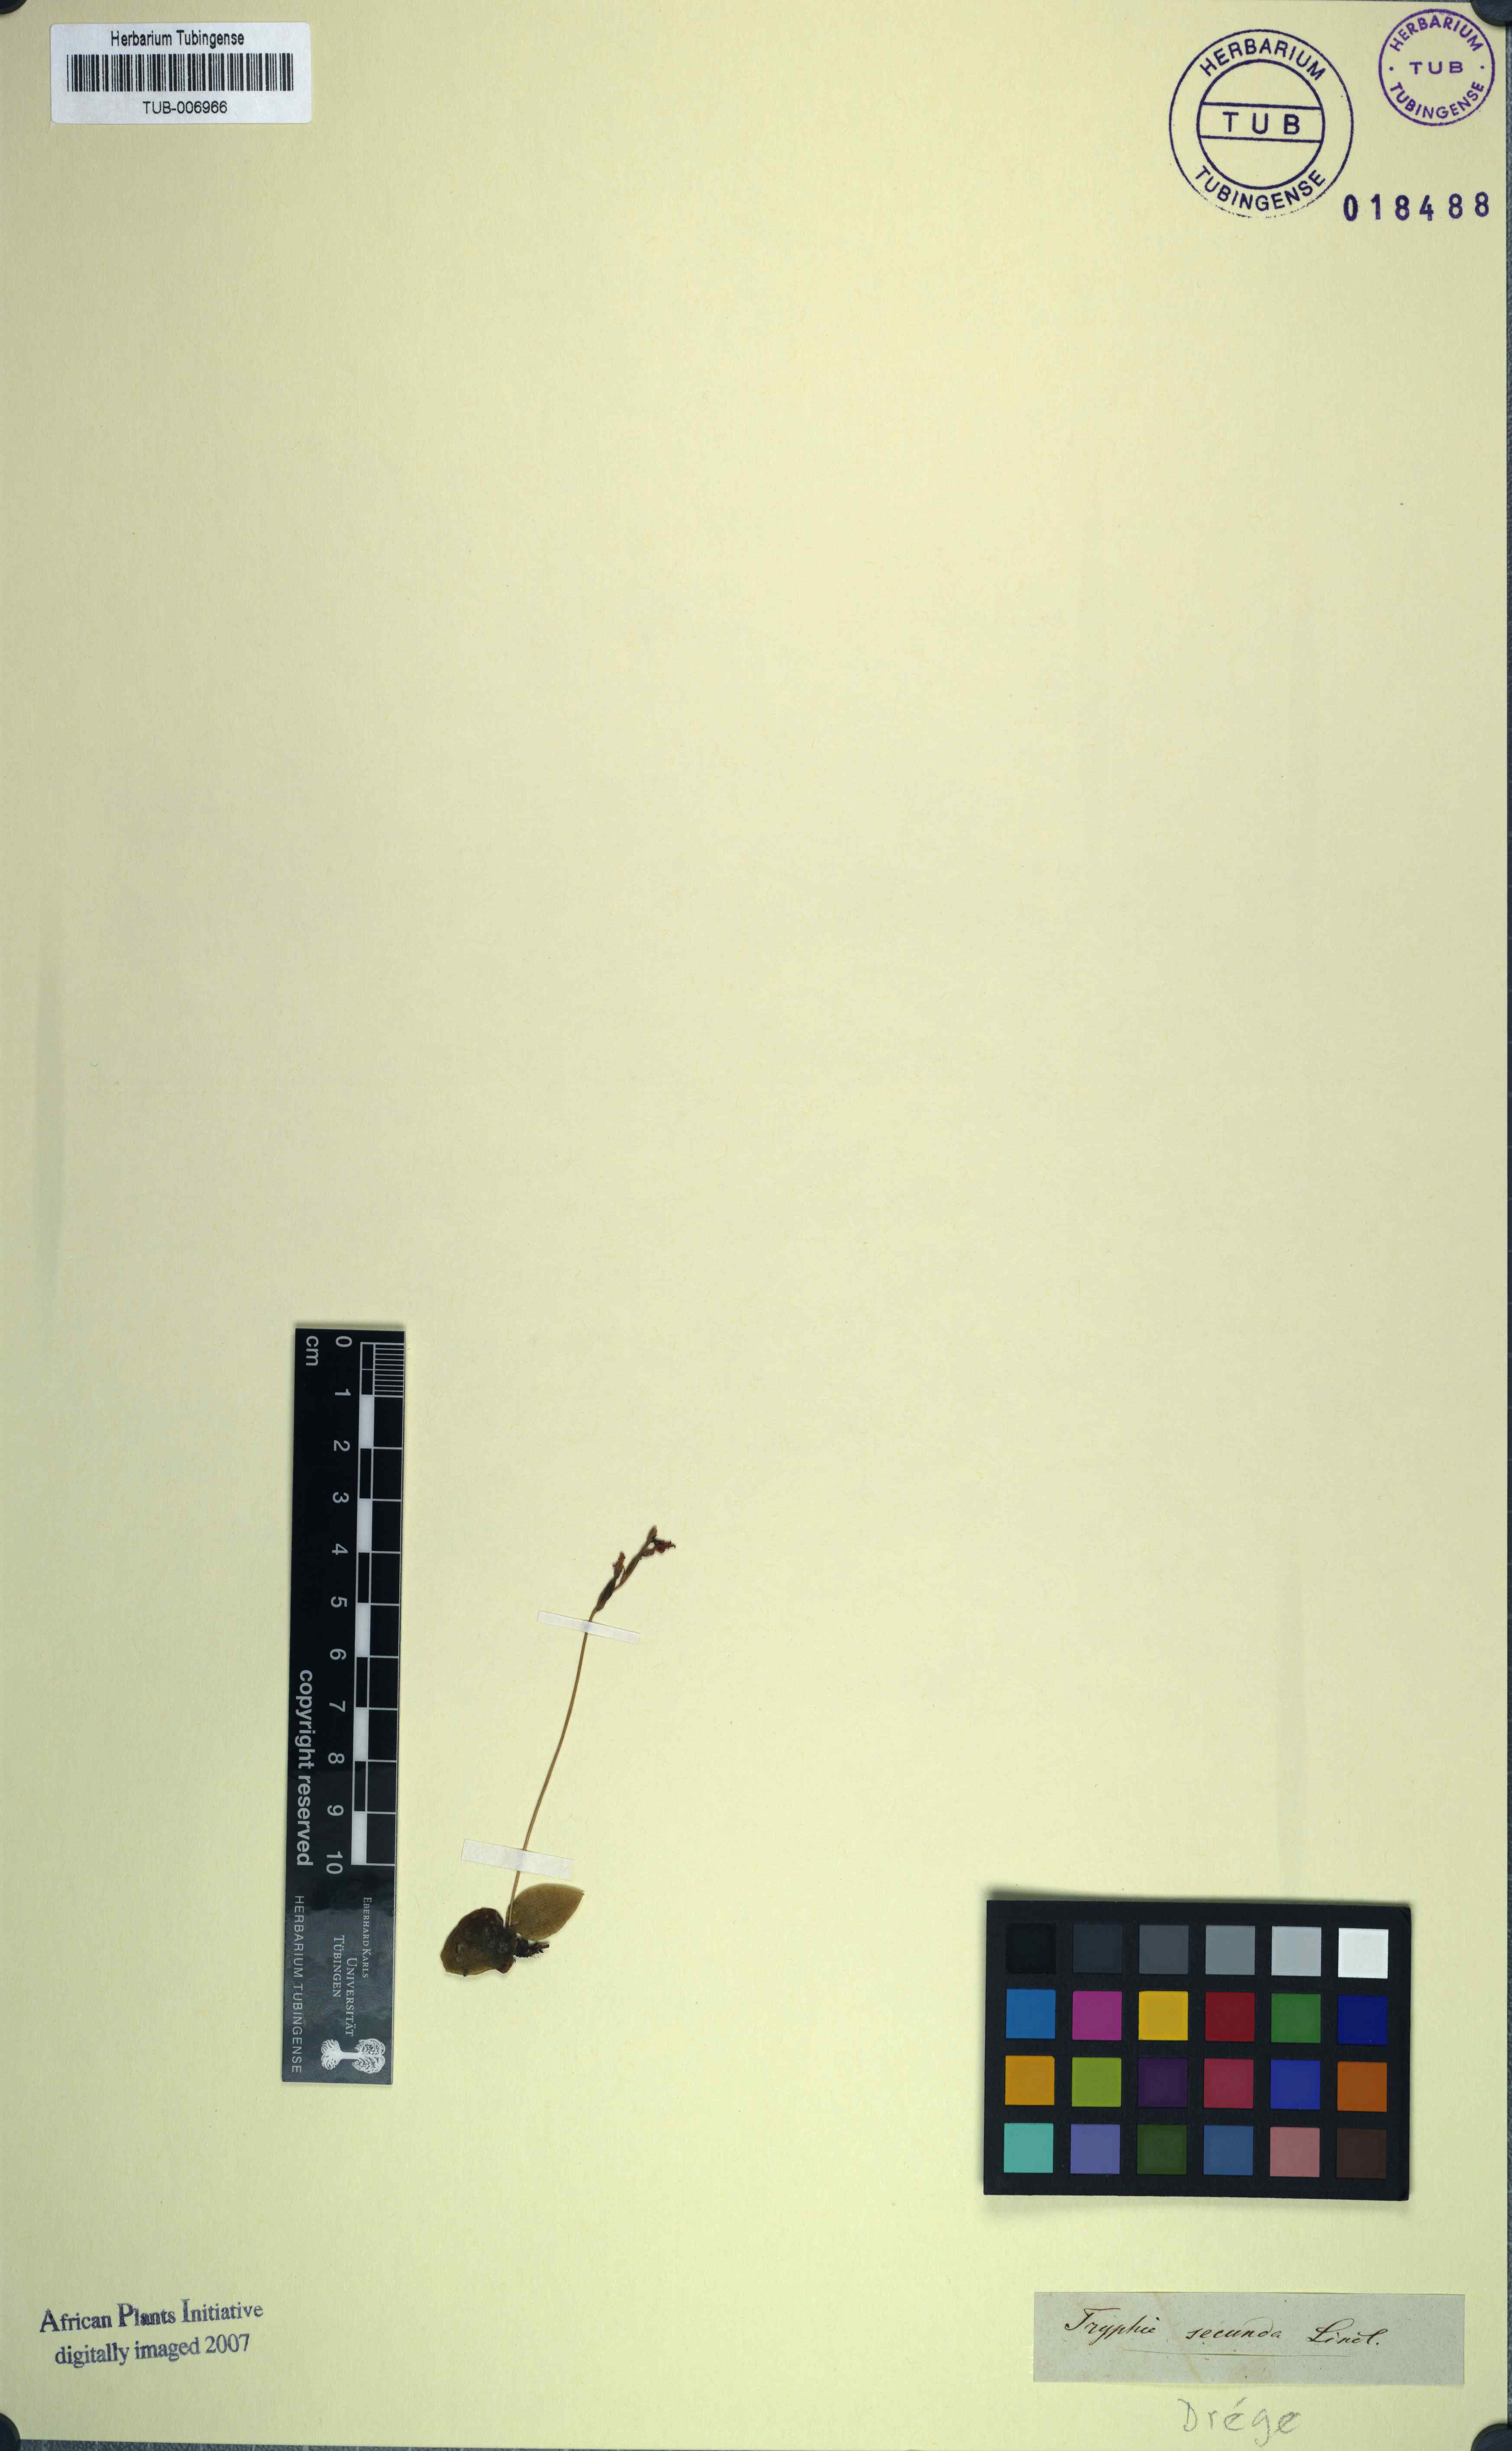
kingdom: Plantae
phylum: Tracheophyta
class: Liliopsida
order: Asparagales
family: Orchidaceae
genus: Holothrix
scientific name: Holothrix parviflora
